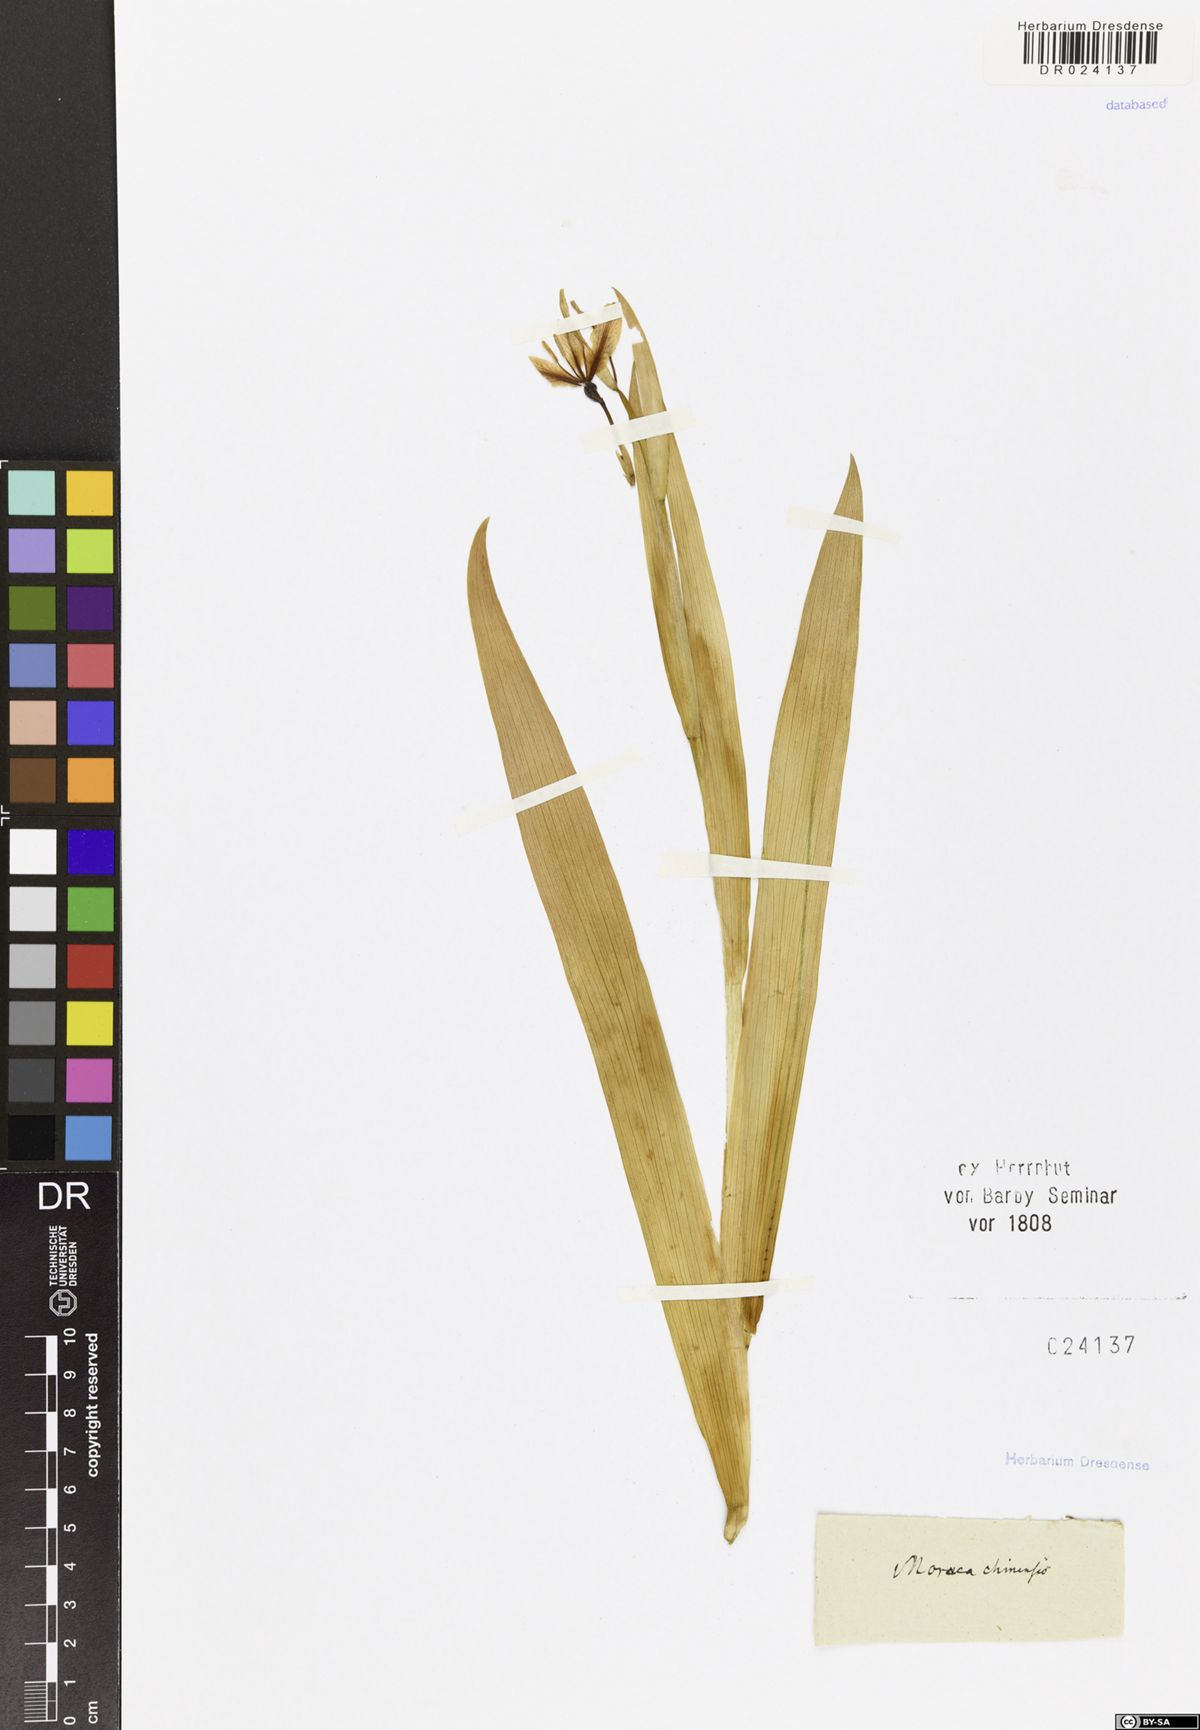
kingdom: Plantae
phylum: Tracheophyta
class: Liliopsida
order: Asparagales
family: Iridaceae
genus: Iris
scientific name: Iris domestica
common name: Belamcanda
